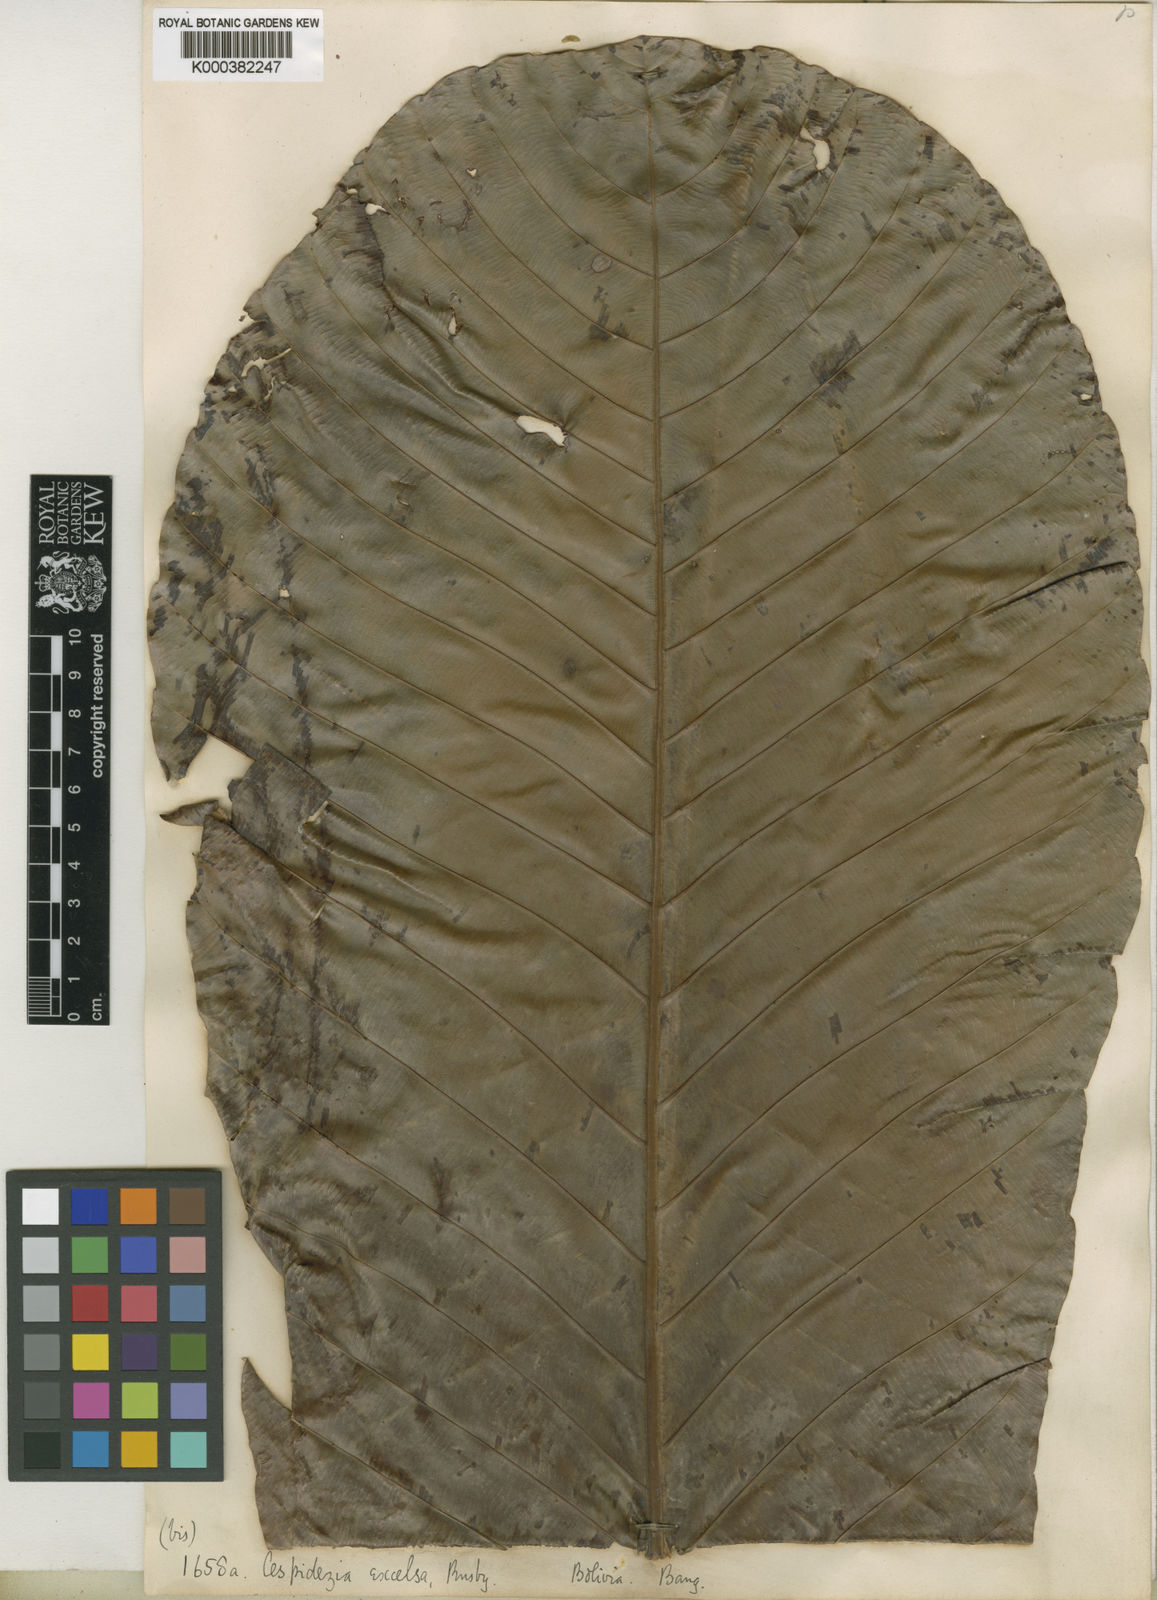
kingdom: Plantae
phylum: Tracheophyta
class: Magnoliopsida
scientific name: Magnoliopsida
